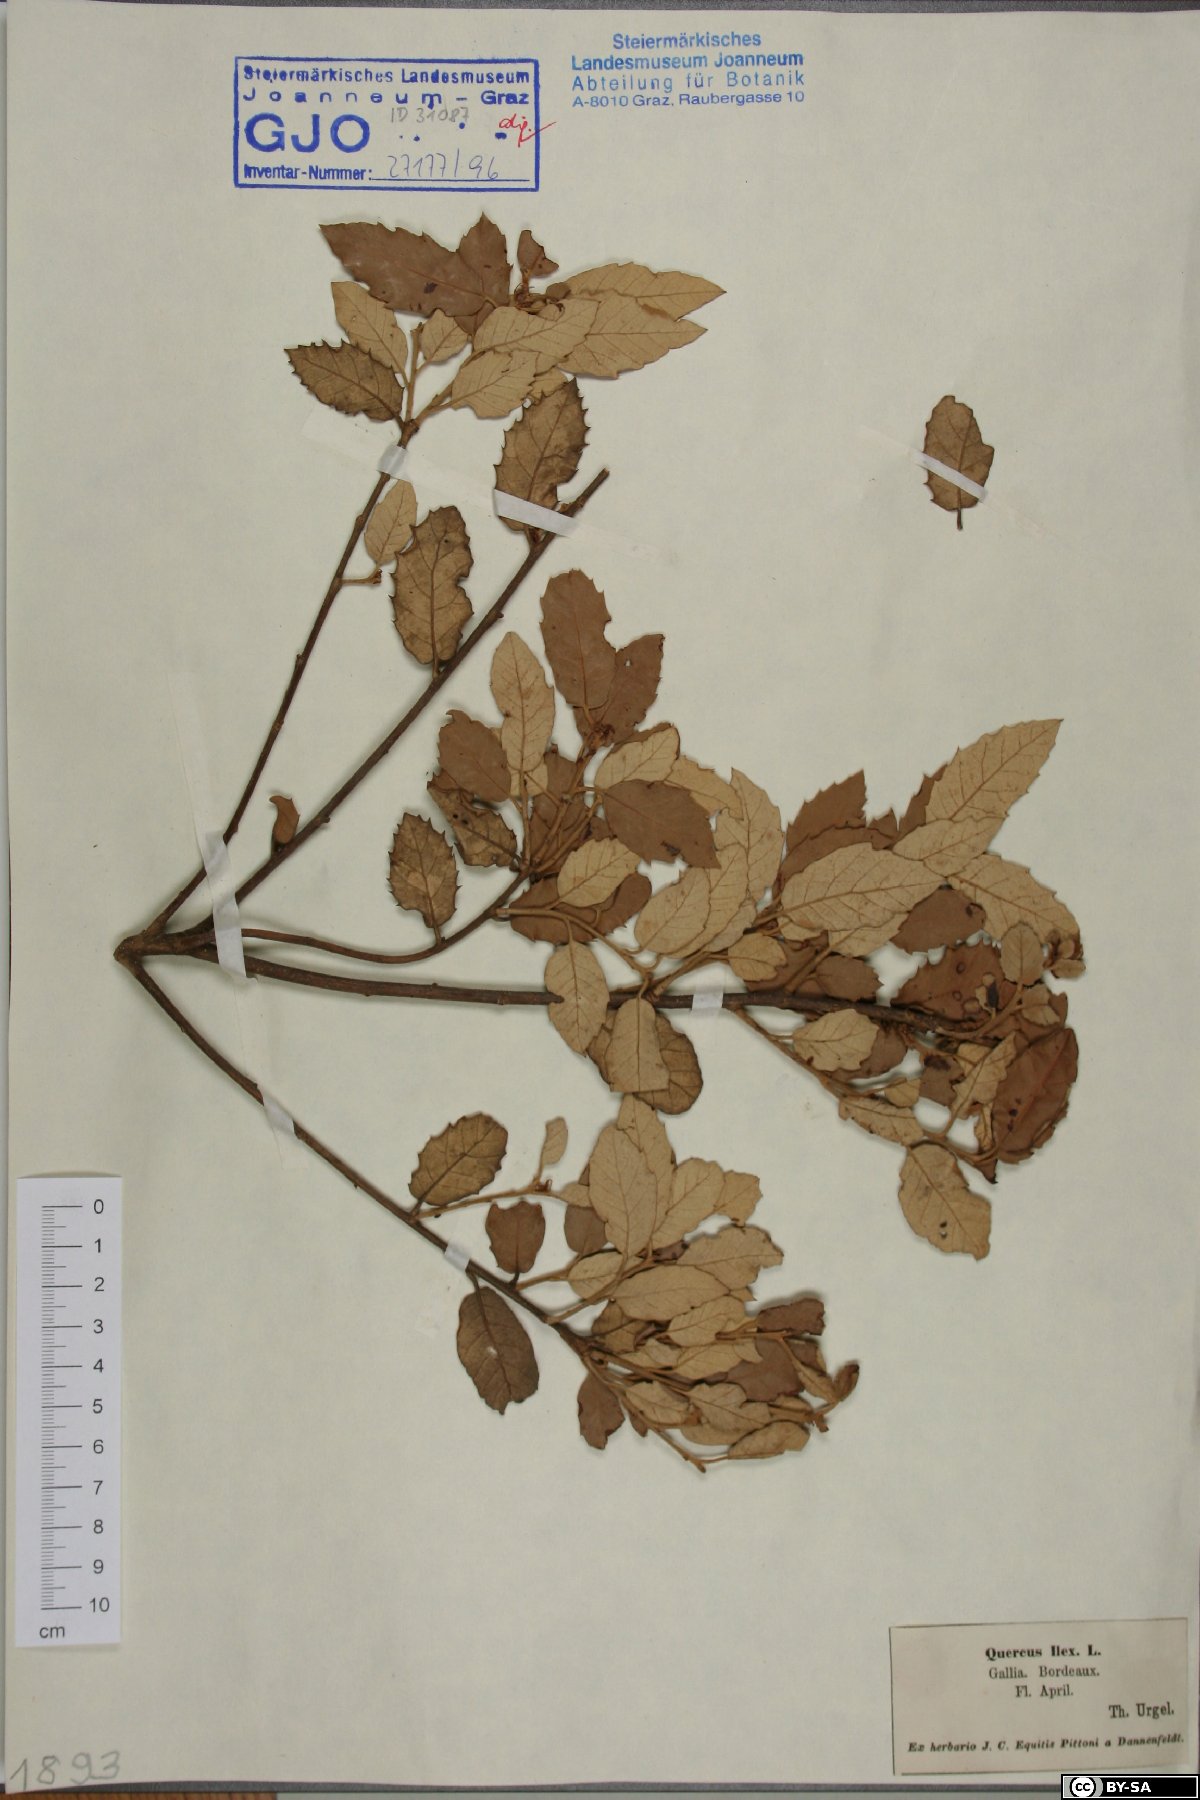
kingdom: Plantae
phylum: Tracheophyta
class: Magnoliopsida
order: Fagales
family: Fagaceae
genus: Quercus
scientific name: Quercus ilex
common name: Evergreen oak
